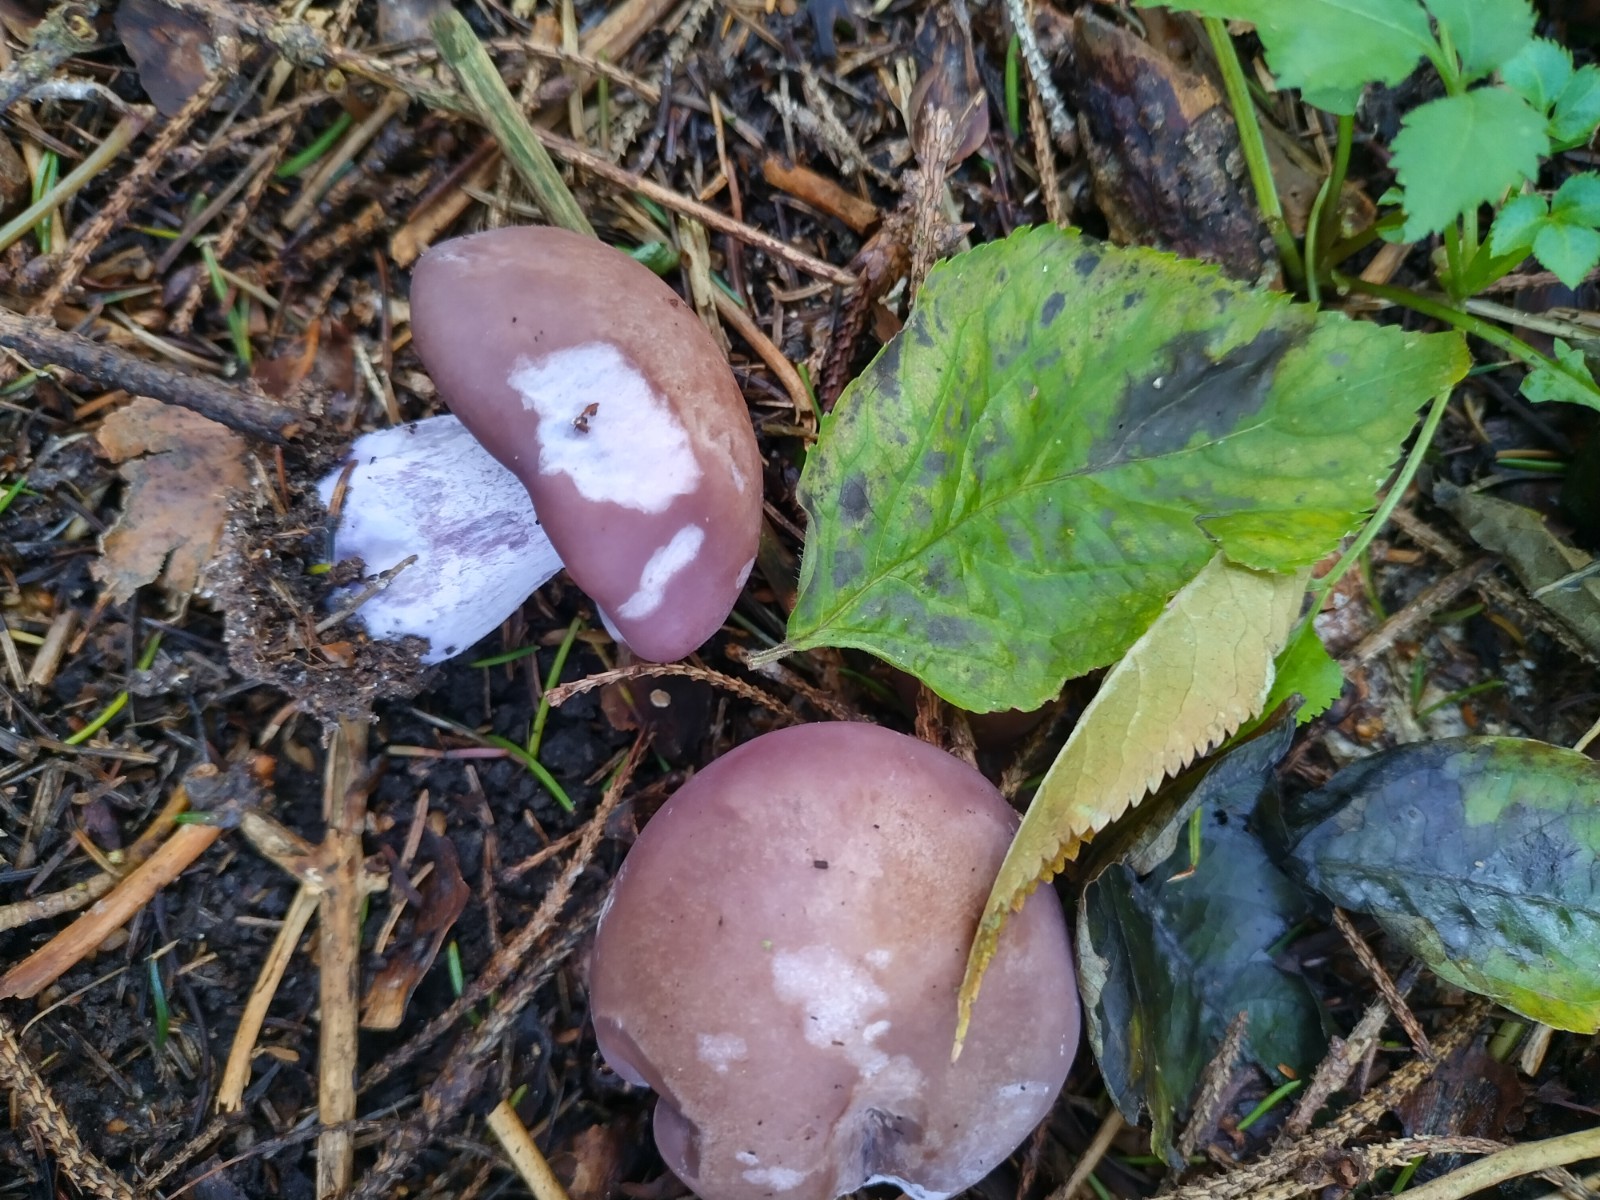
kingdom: Fungi
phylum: Basidiomycota
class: Agaricomycetes
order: Agaricales
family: Tricholomataceae
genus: Lepista
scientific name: Lepista nuda
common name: violet hekseringshat
